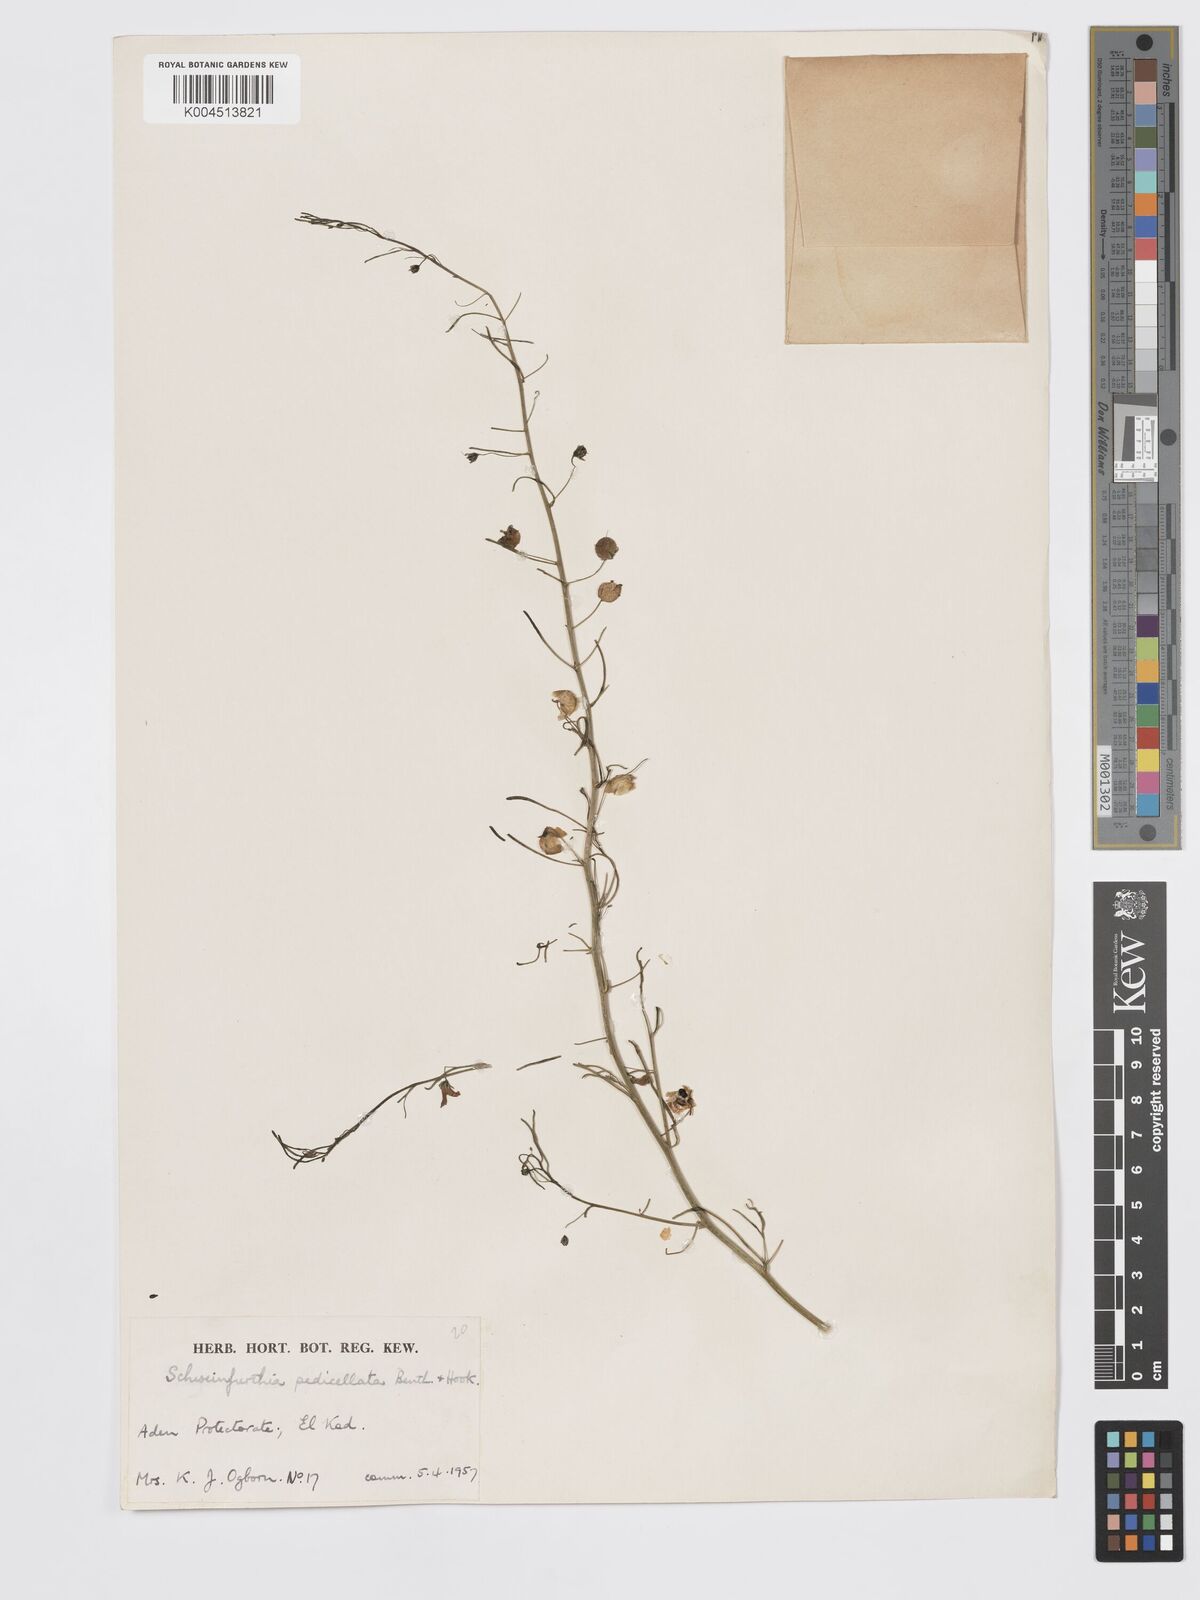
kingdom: Plantae
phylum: Tracheophyta
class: Magnoliopsida
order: Lamiales
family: Plantaginaceae
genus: Schweinfurthia
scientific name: Schweinfurthia pedicellata
